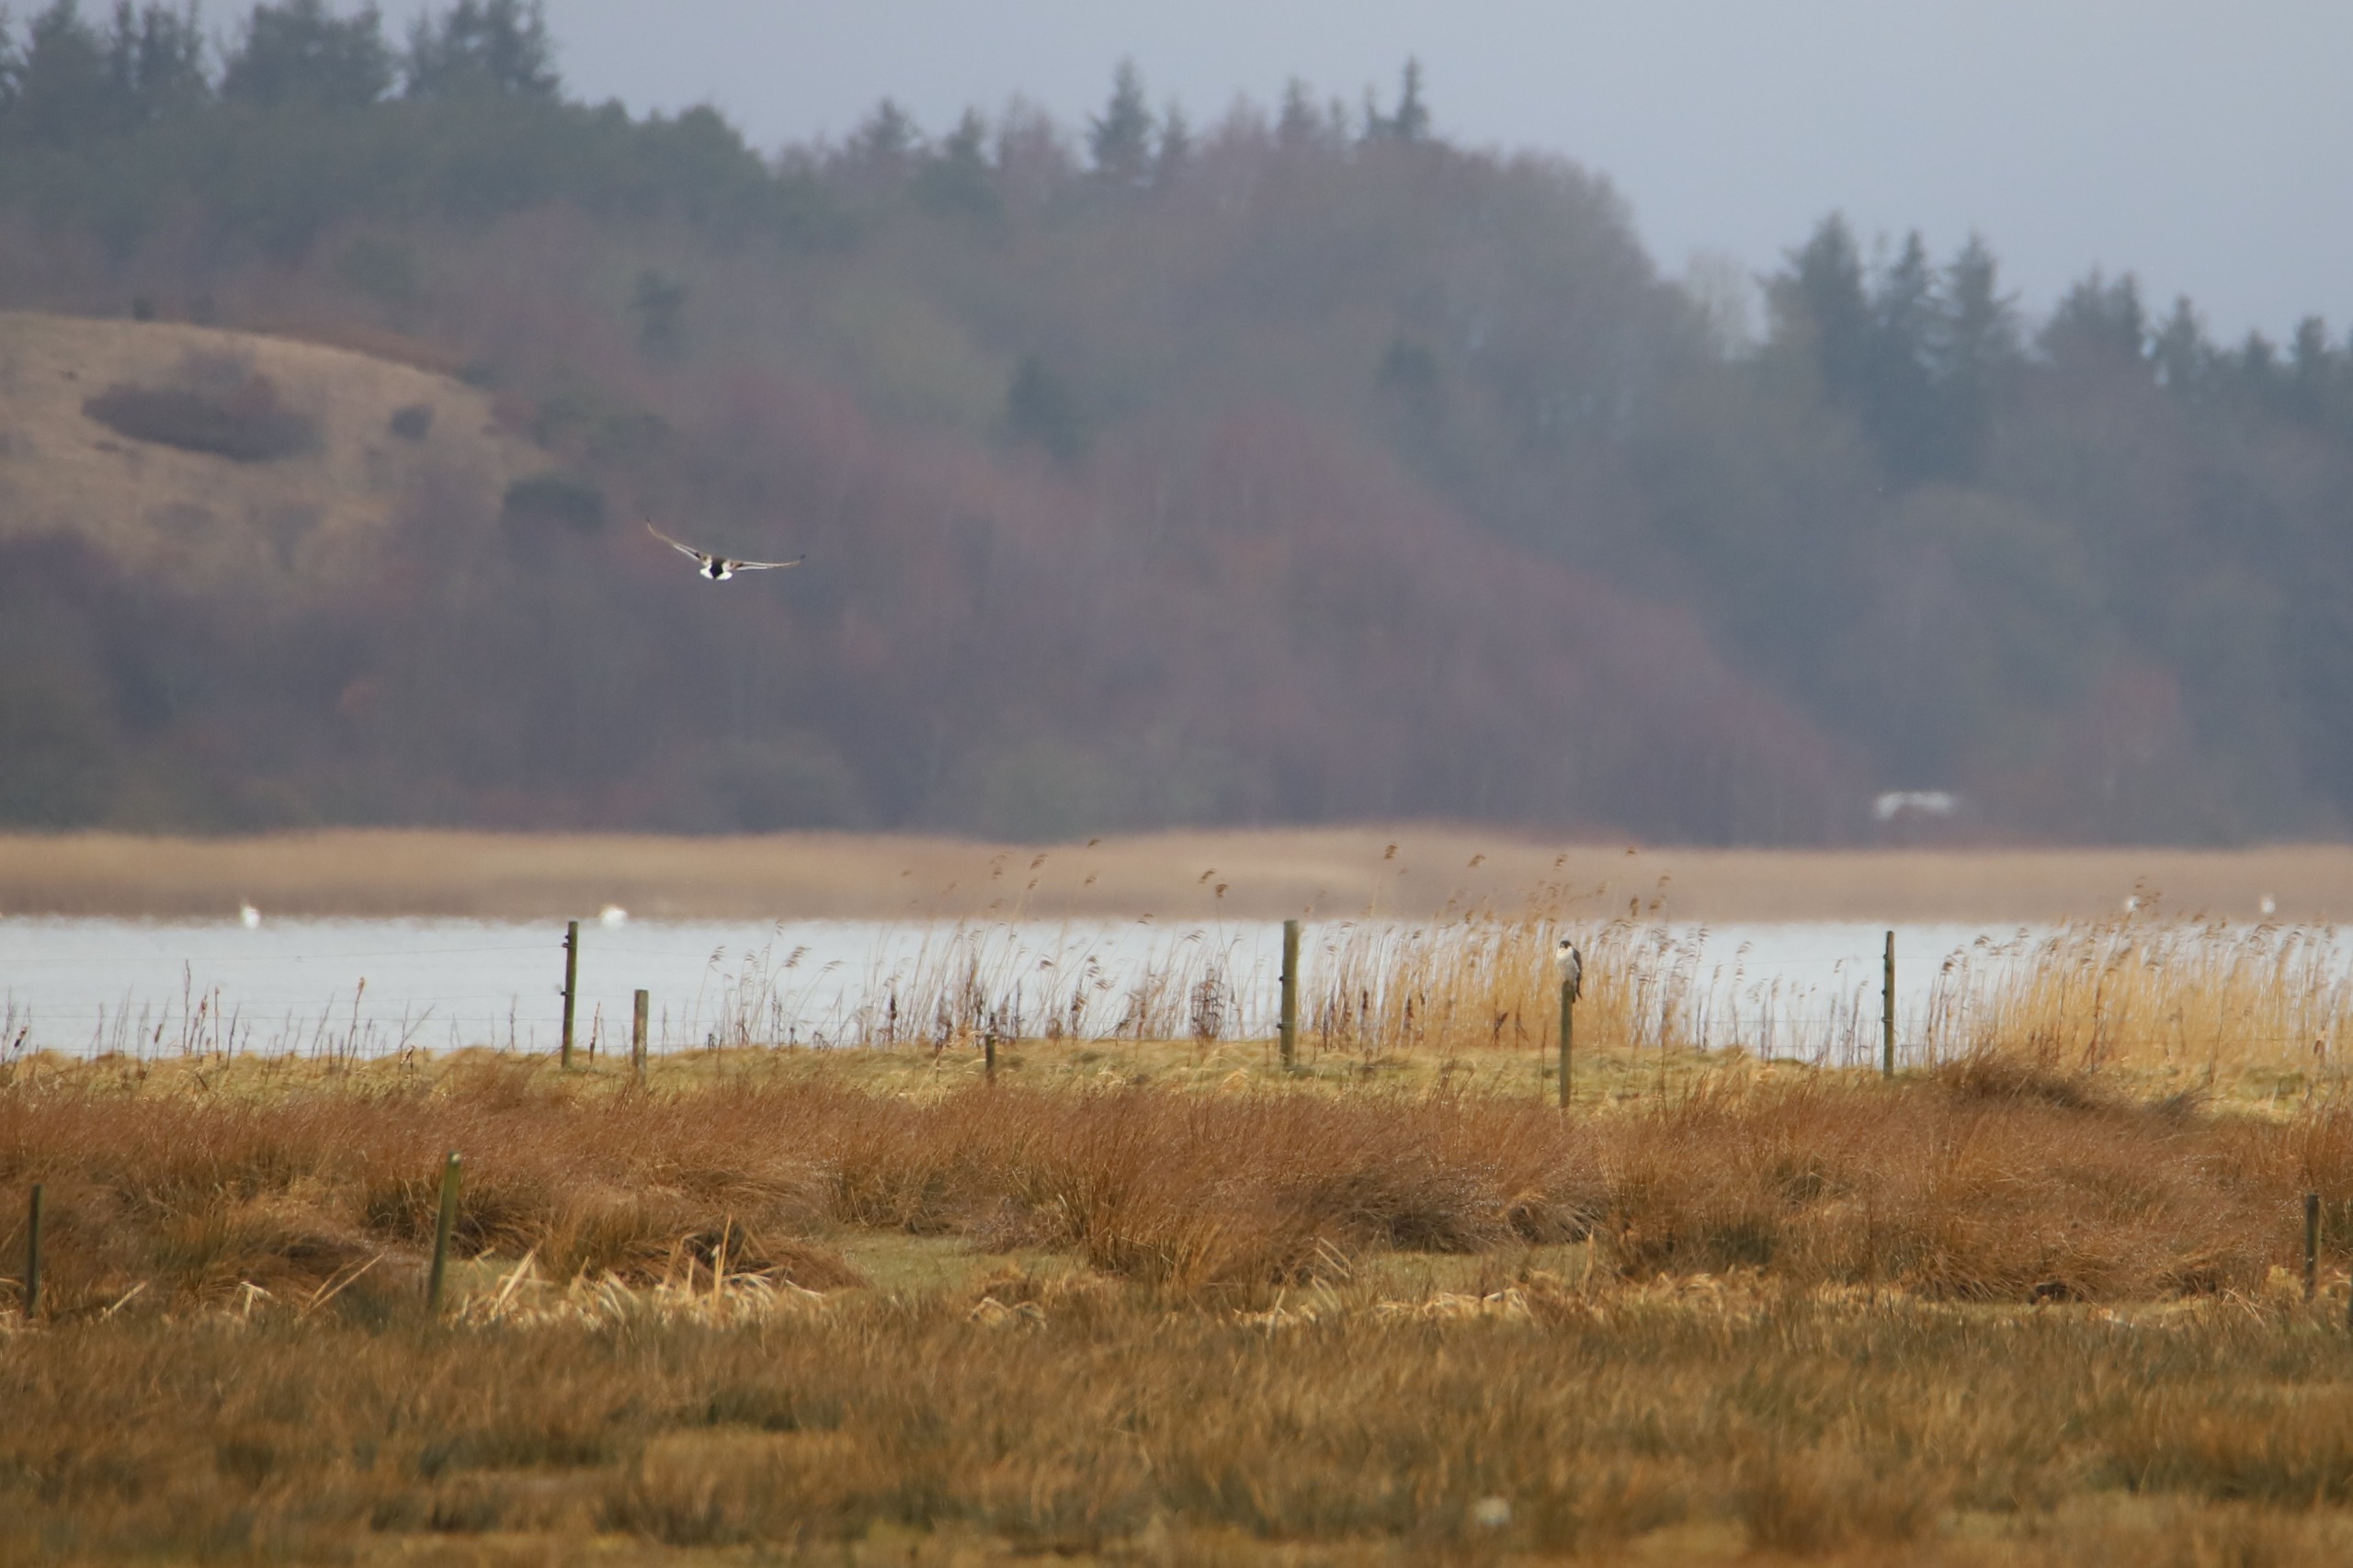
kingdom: Animalia
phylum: Chordata
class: Aves
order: Falconiformes
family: Falconidae
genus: Falco
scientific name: Falco peregrinus
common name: Vandrefalk
